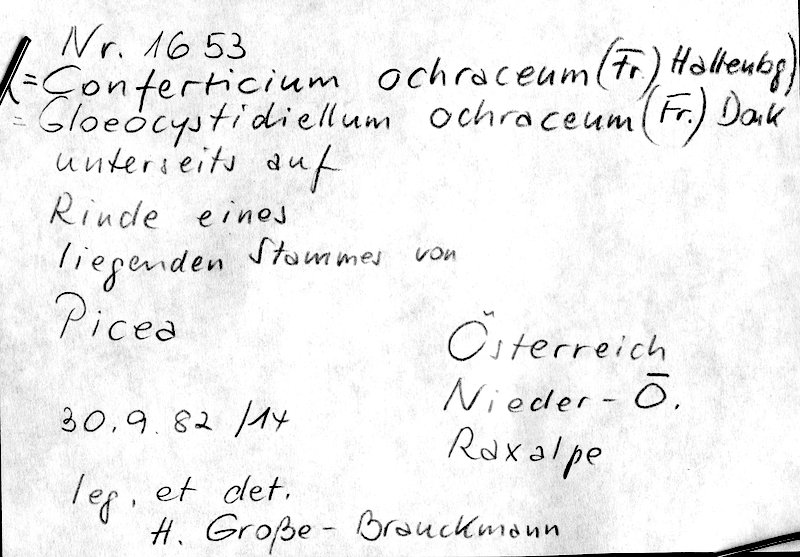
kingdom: Plantae
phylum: Tracheophyta
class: Pinopsida
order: Pinales
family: Pinaceae
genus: Picea
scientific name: Picea
